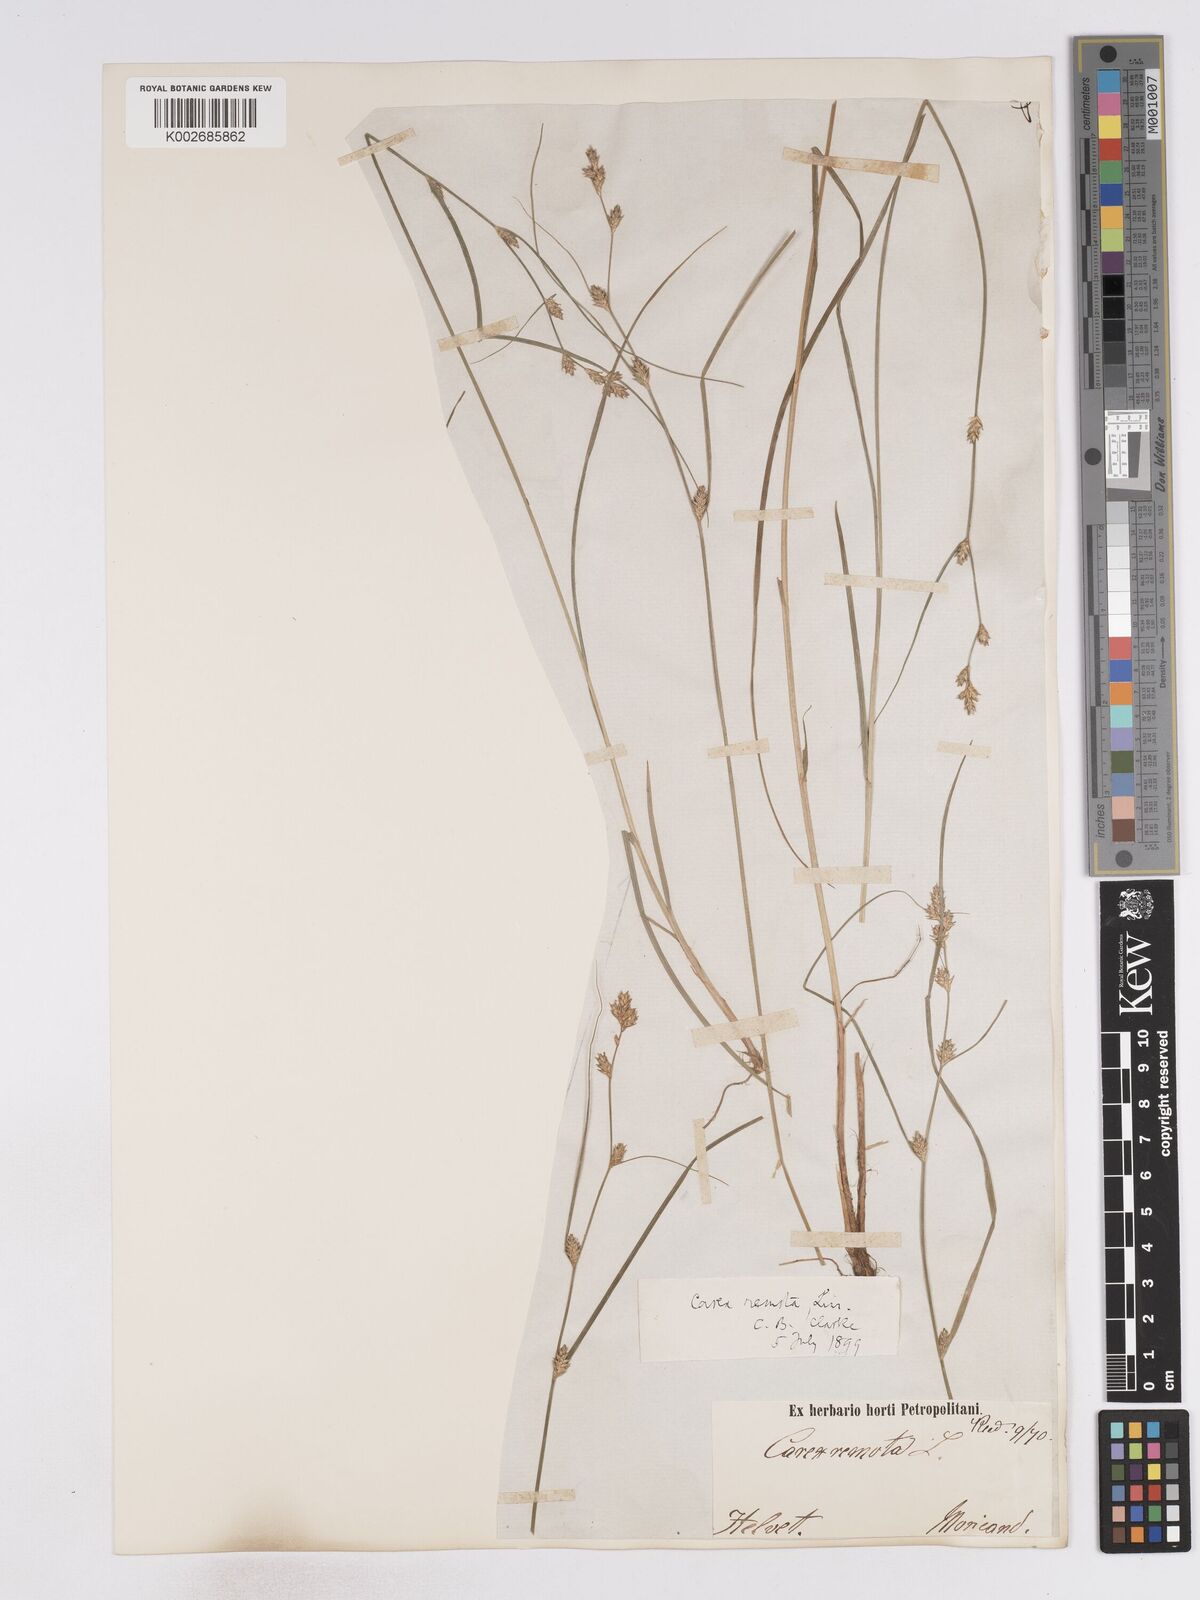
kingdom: Plantae
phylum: Tracheophyta
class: Liliopsida
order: Poales
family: Cyperaceae
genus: Carex
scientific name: Carex remota
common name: Remote sedge
